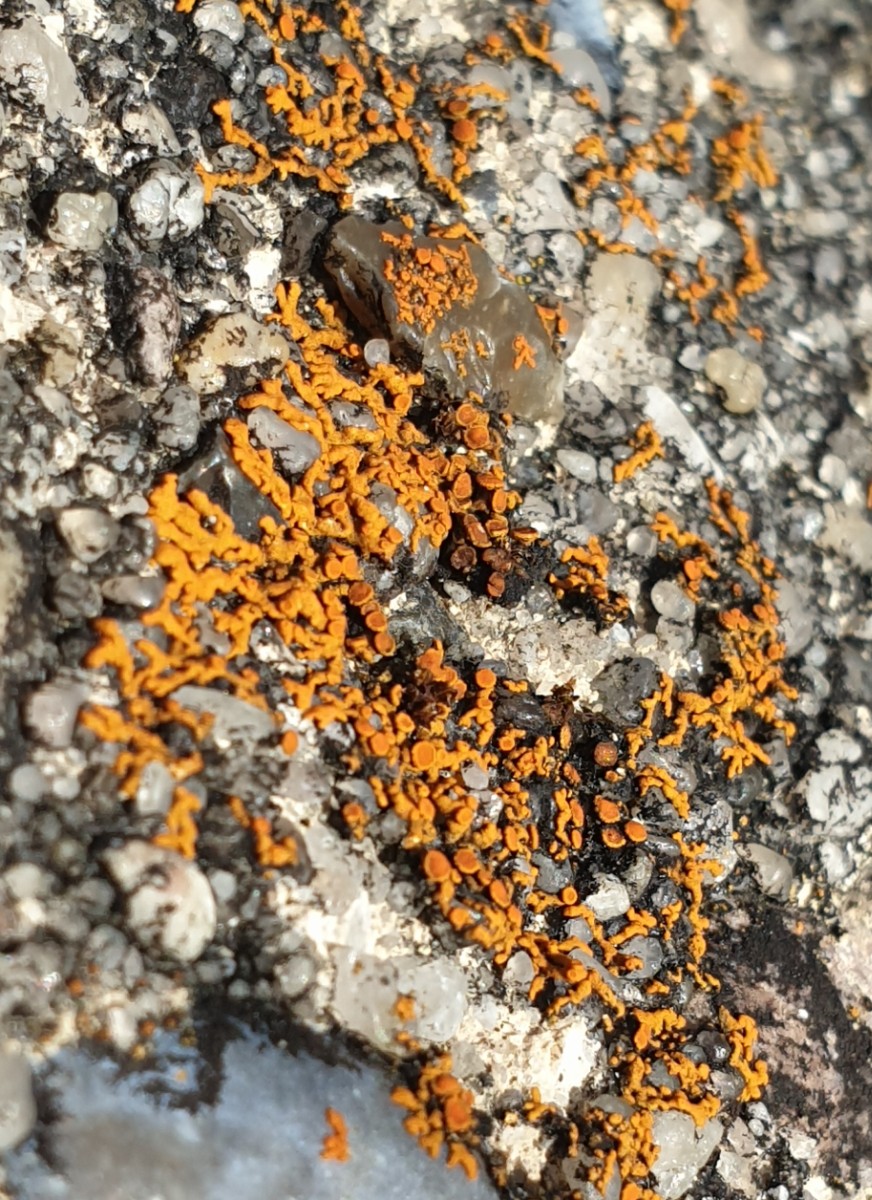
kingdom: Fungi
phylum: Ascomycota
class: Lecanoromycetes
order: Teloschistales
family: Teloschistaceae
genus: Xanthoria
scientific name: Xanthoria elegans
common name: fjeld-væggelav
